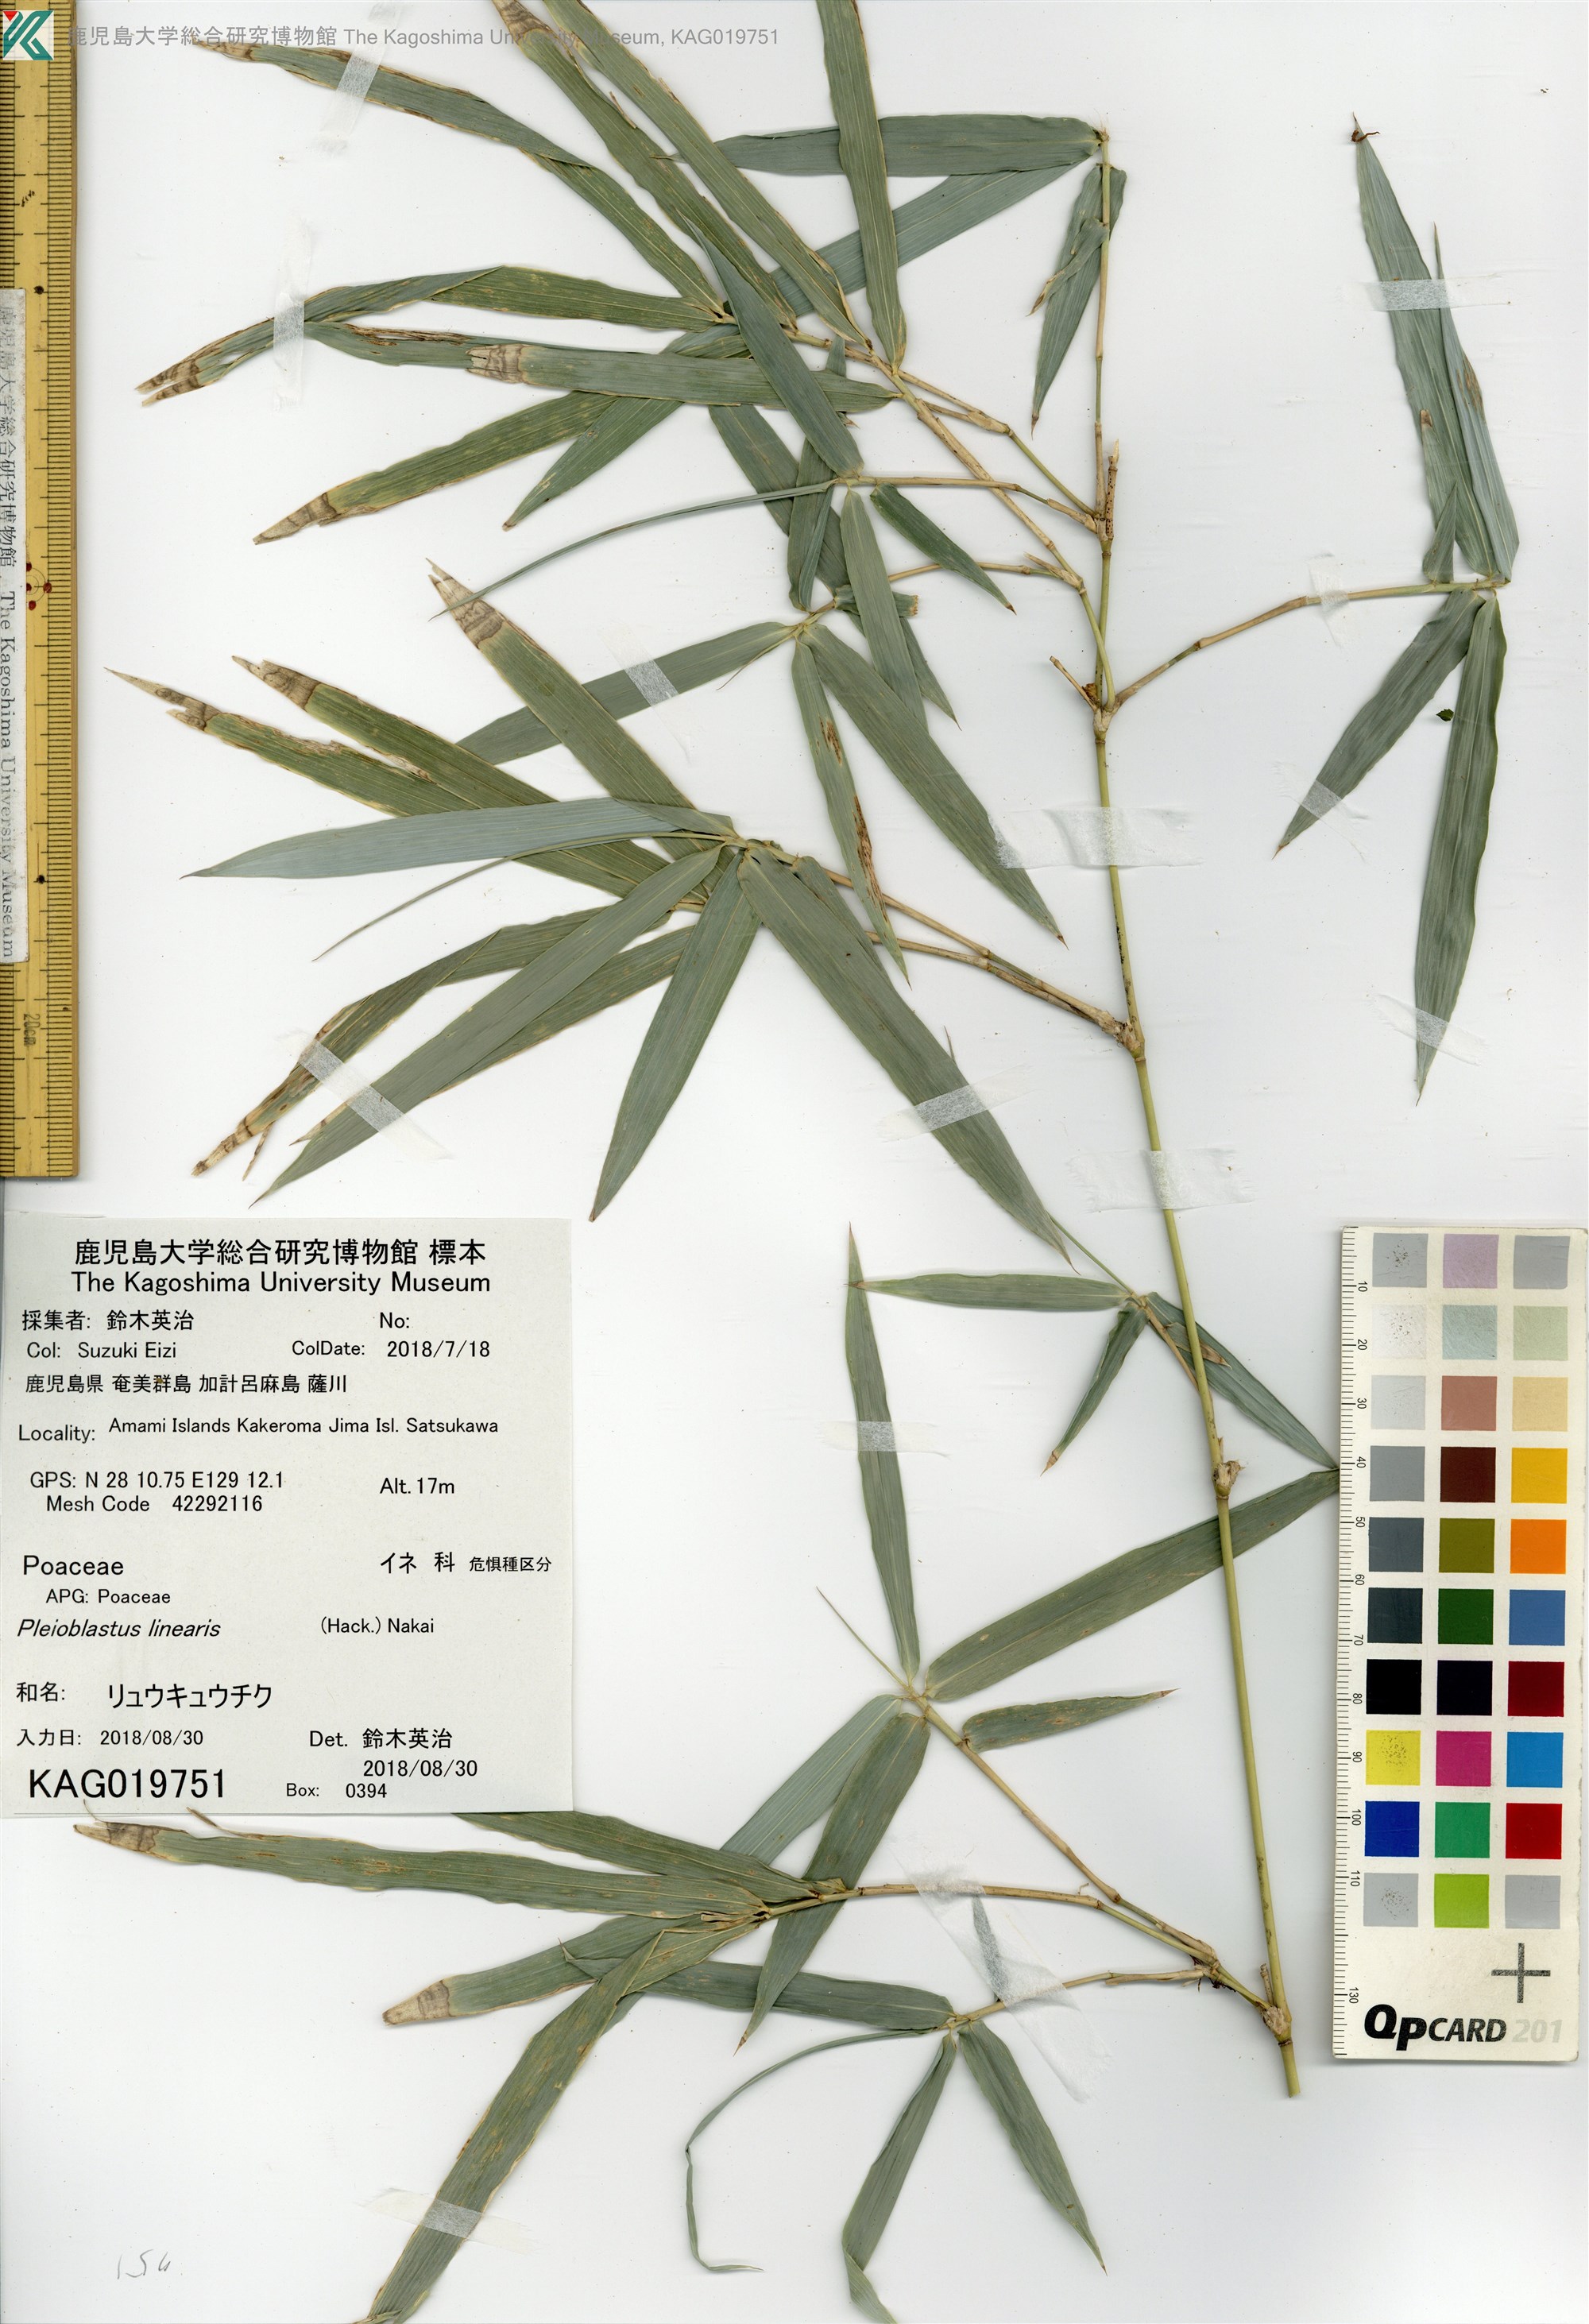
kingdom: Plantae
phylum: Tracheophyta
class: Liliopsida
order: Poales
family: Poaceae
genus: Pleioblastus
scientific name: Pleioblastus linearis
